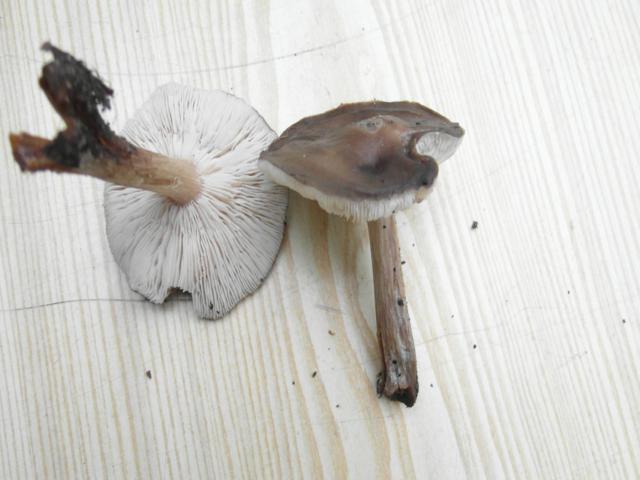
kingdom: Fungi
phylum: Basidiomycota
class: Agaricomycetes
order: Agaricales
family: Tricholomataceae
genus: Melanoleuca
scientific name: Melanoleuca polioleuca
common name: almindelig munkehat
